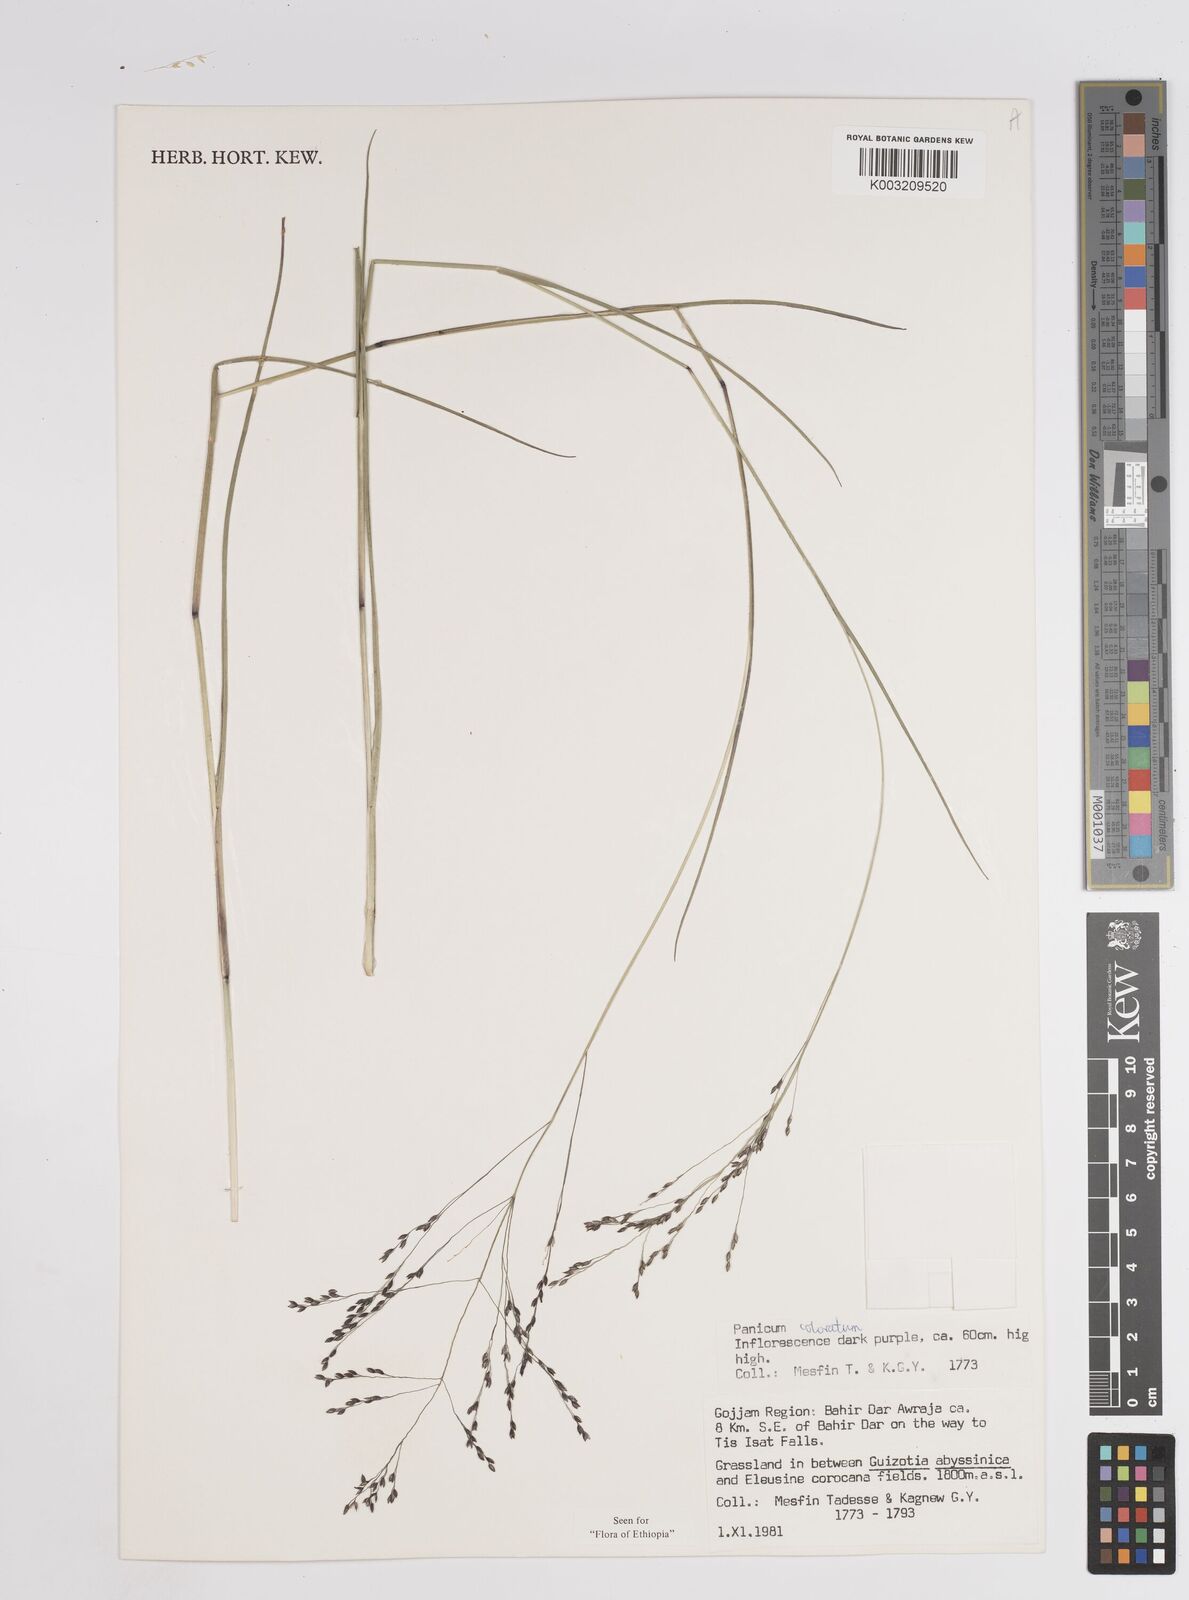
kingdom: Plantae
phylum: Tracheophyta
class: Liliopsida
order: Poales
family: Poaceae
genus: Panicum
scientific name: Panicum coloratum
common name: Kleingrass
